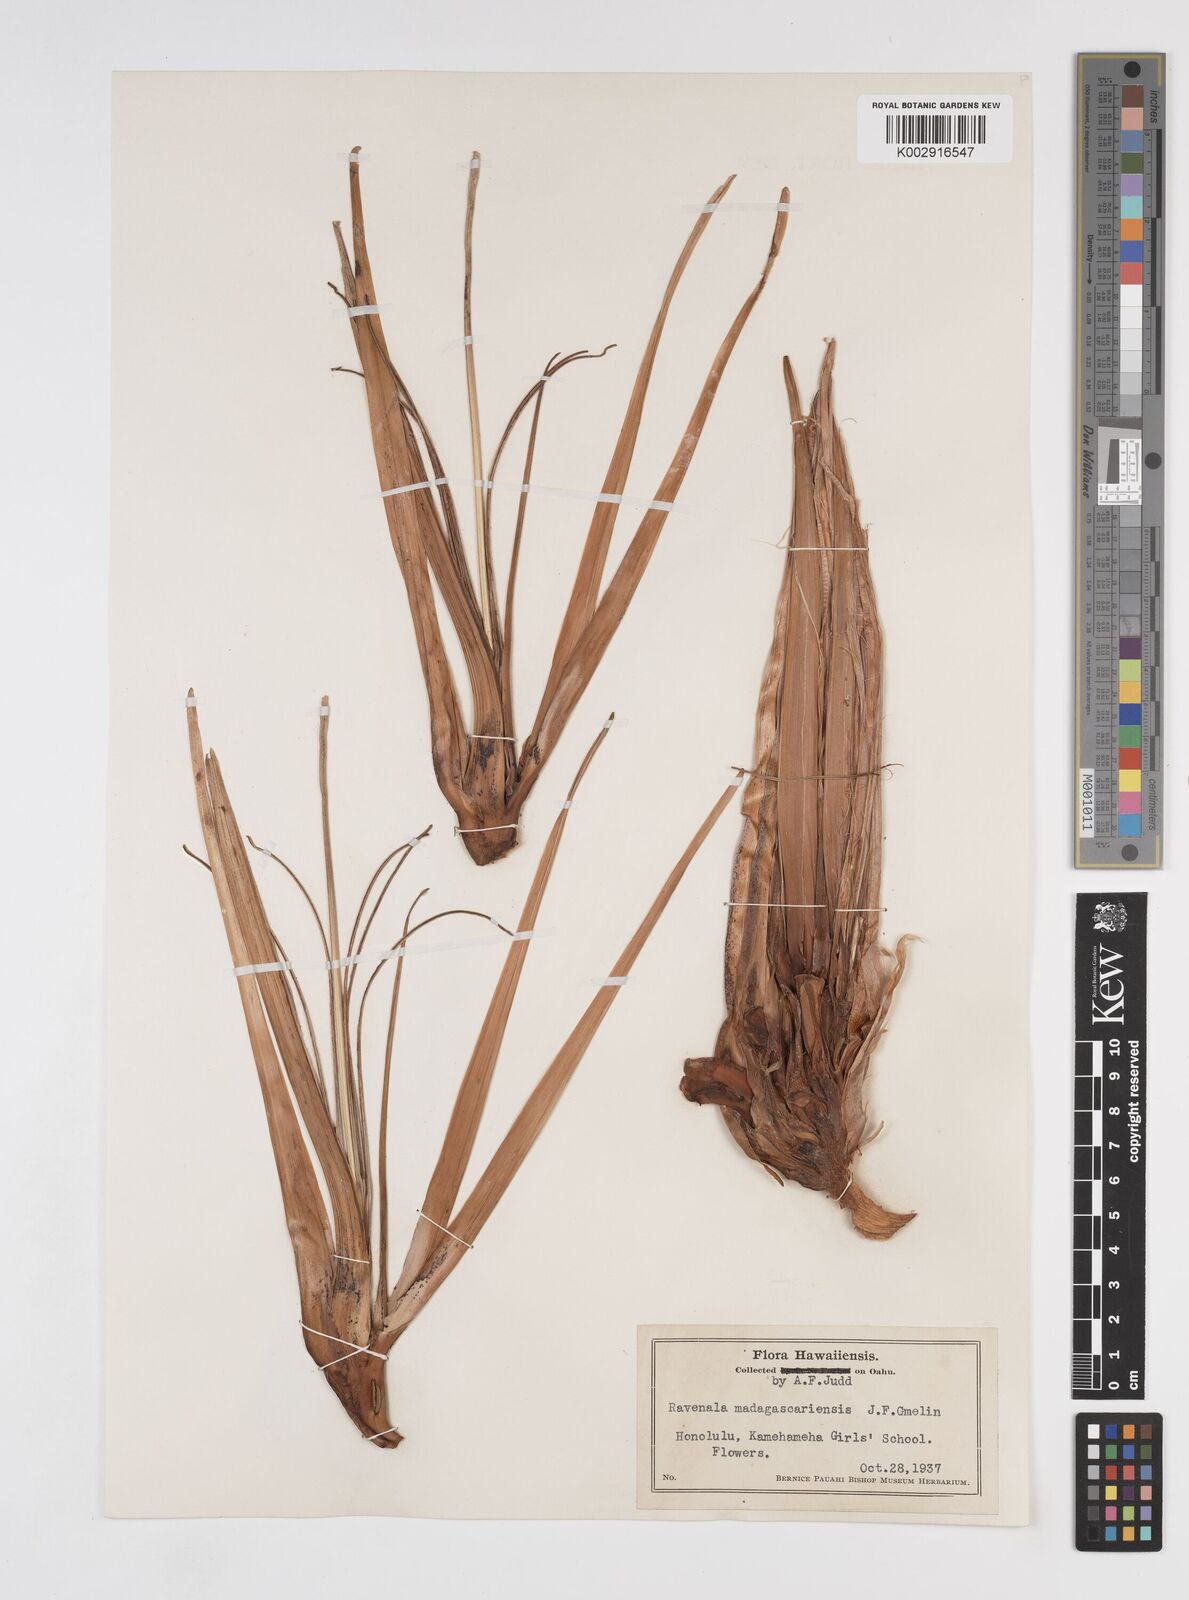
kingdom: Plantae
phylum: Tracheophyta
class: Liliopsida
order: Zingiberales
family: Strelitziaceae
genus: Ravenala
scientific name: Ravenala madagascariensis
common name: Traveler's-palm
